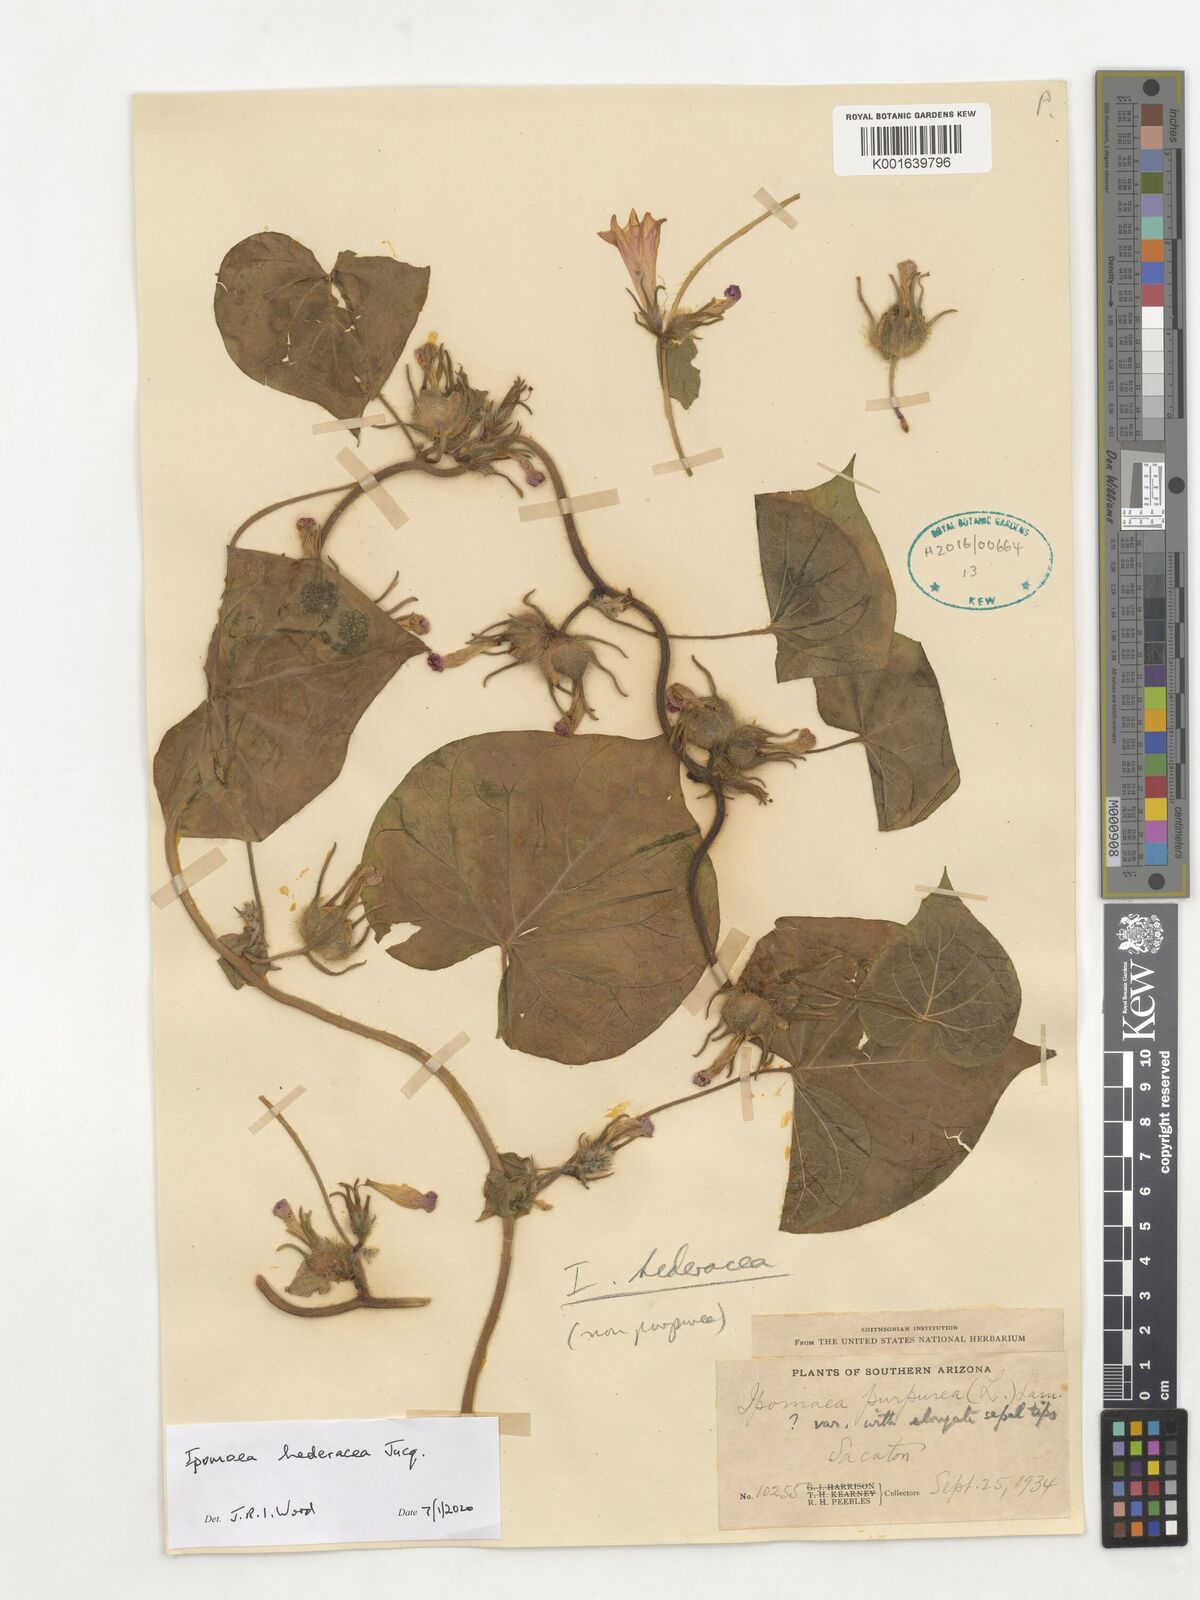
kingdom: Plantae
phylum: Tracheophyta
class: Magnoliopsida
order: Solanales
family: Convolvulaceae
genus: Ipomoea
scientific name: Ipomoea hederacea
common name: Ivy-leaved morning-glory
